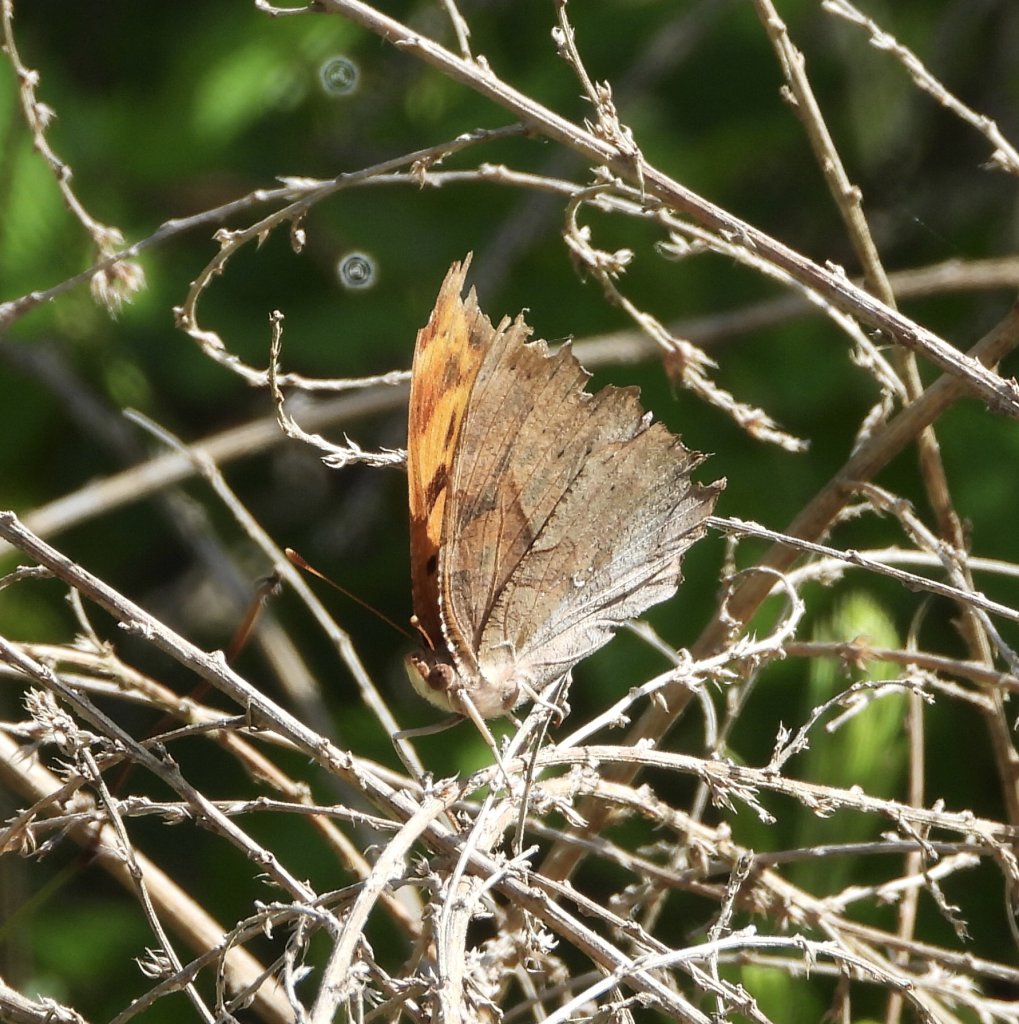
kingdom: Animalia
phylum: Arthropoda
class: Insecta
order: Lepidoptera
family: Nymphalidae
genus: Polygonia
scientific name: Polygonia interrogationis
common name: Question Mark
